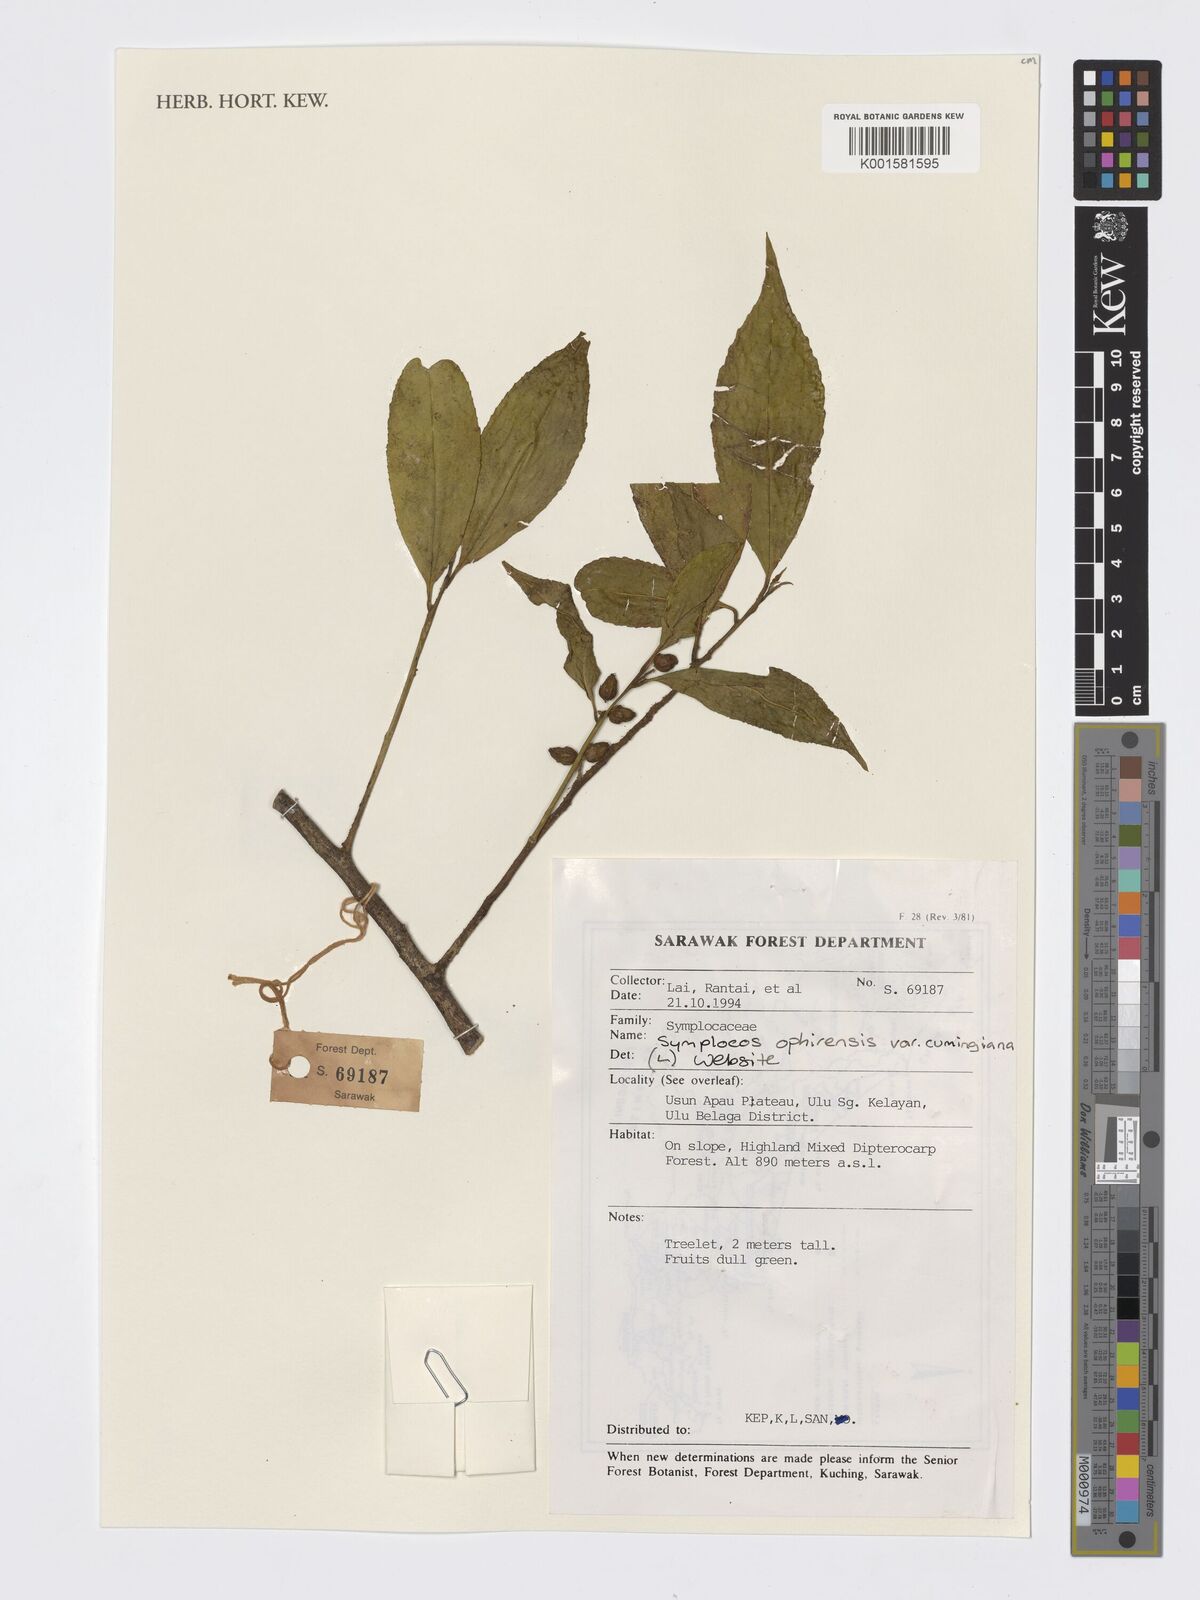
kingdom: Plantae
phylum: Tracheophyta
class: Magnoliopsida
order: Ericales
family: Symplocaceae
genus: Symplocos
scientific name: Symplocos ophirensis
